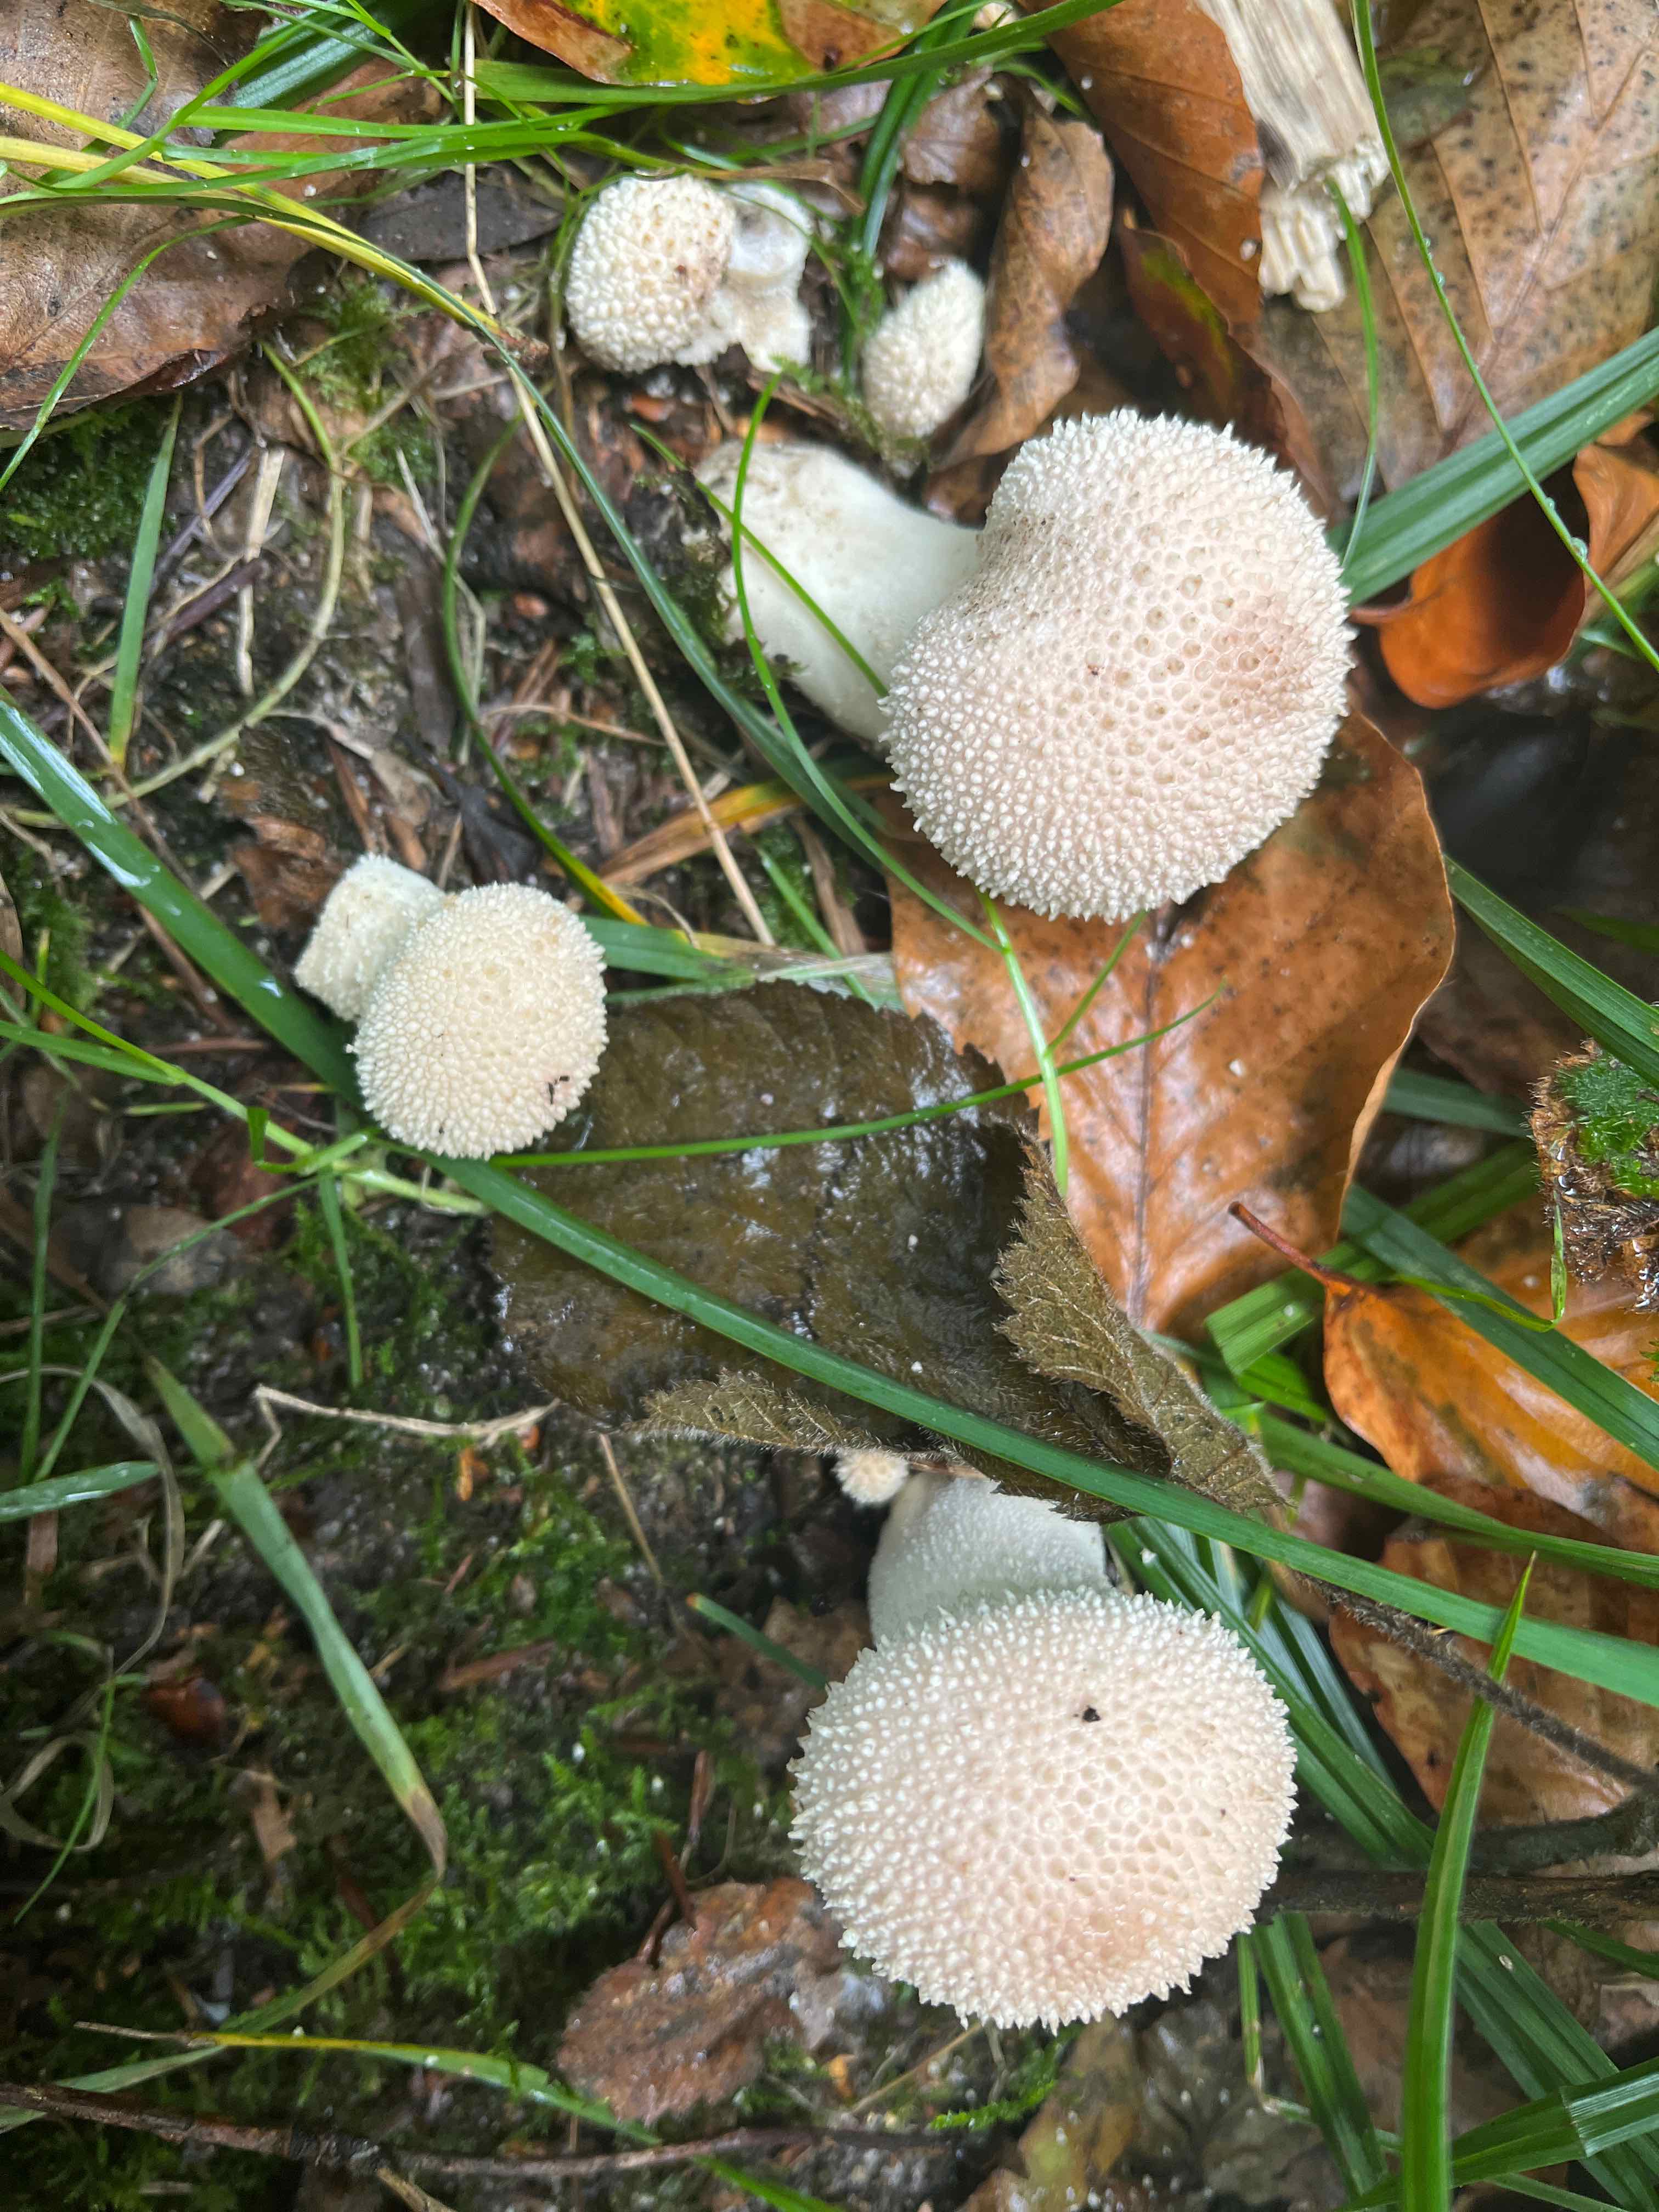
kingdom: Fungi
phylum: Basidiomycota
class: Agaricomycetes
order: Agaricales
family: Lycoperdaceae
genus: Lycoperdon
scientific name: Lycoperdon perlatum
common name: krystal-støvbold
